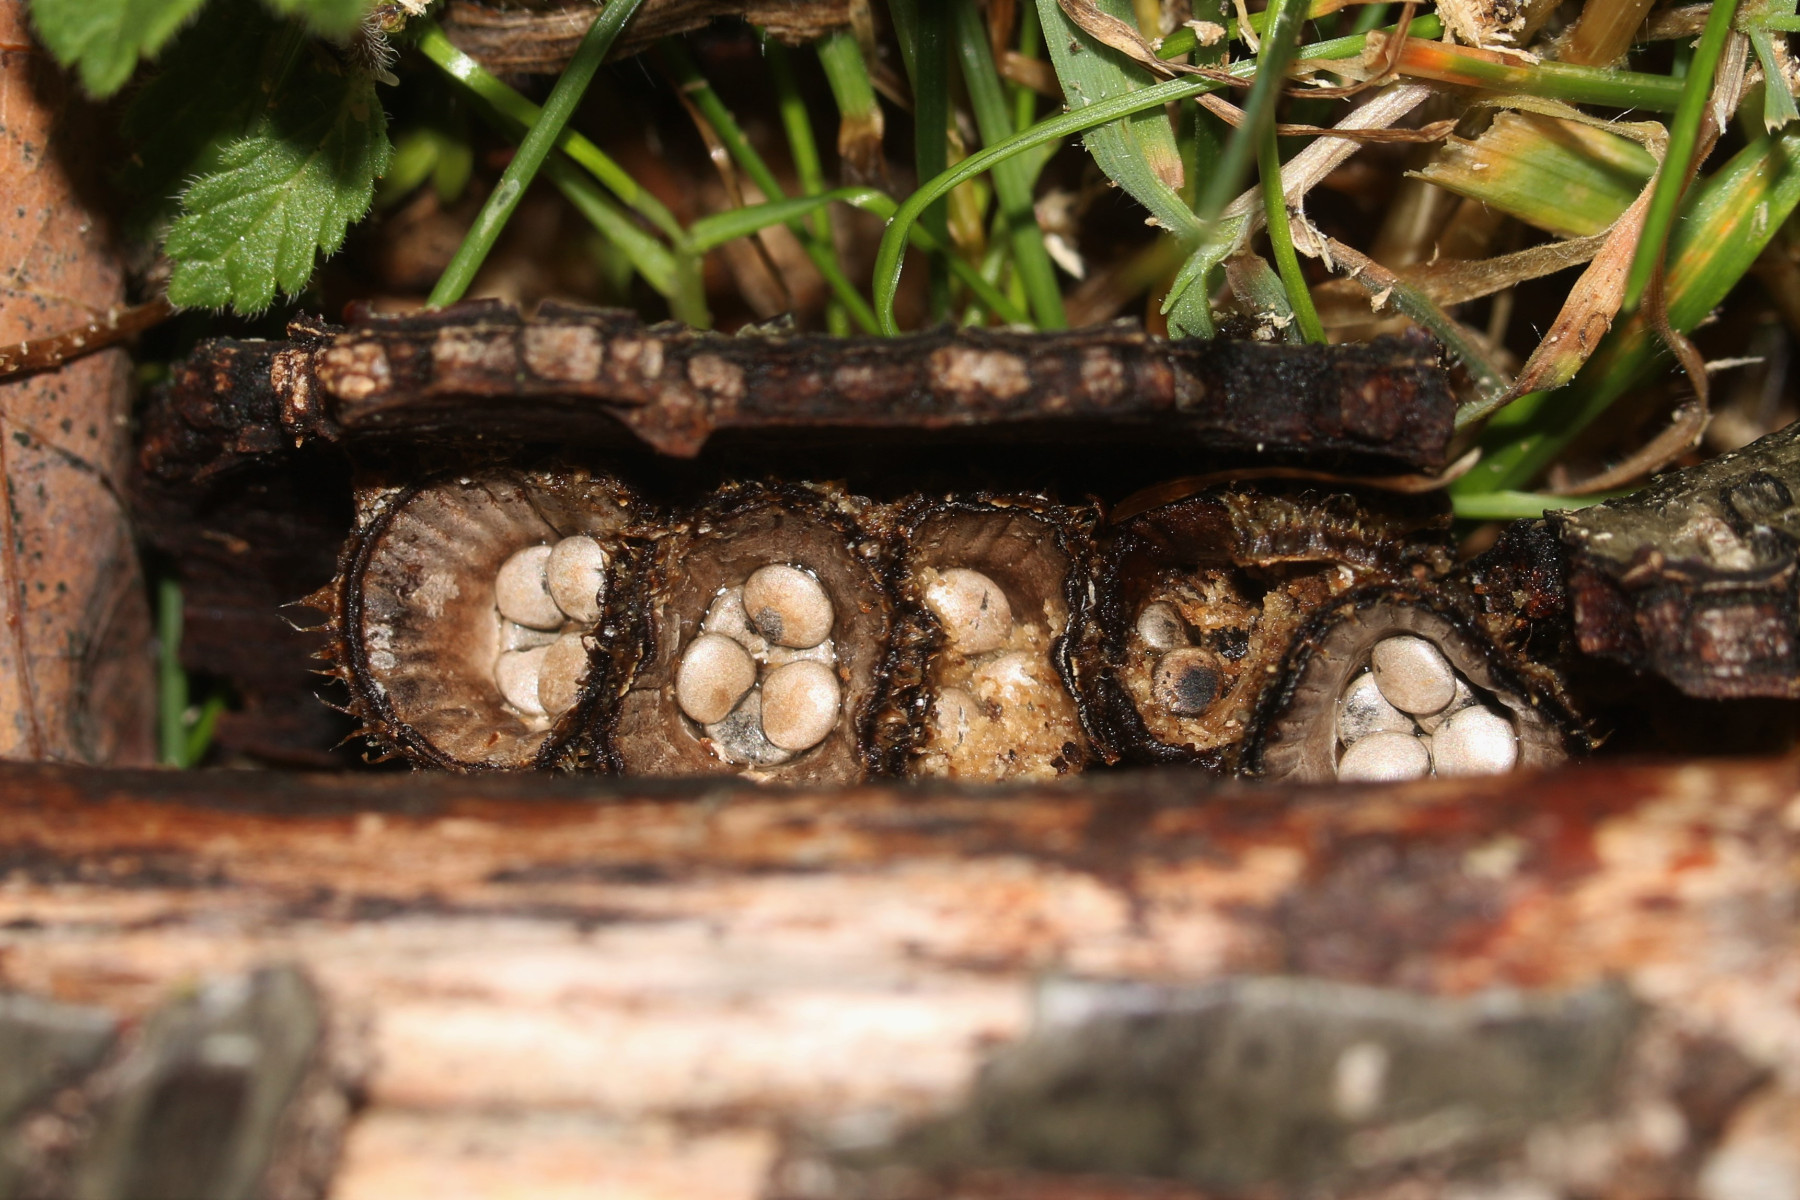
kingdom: Fungi
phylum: Basidiomycota
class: Agaricomycetes
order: Agaricales
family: Agaricaceae
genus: Cyathus
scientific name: Cyathus striatus
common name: stribet redesvamp
